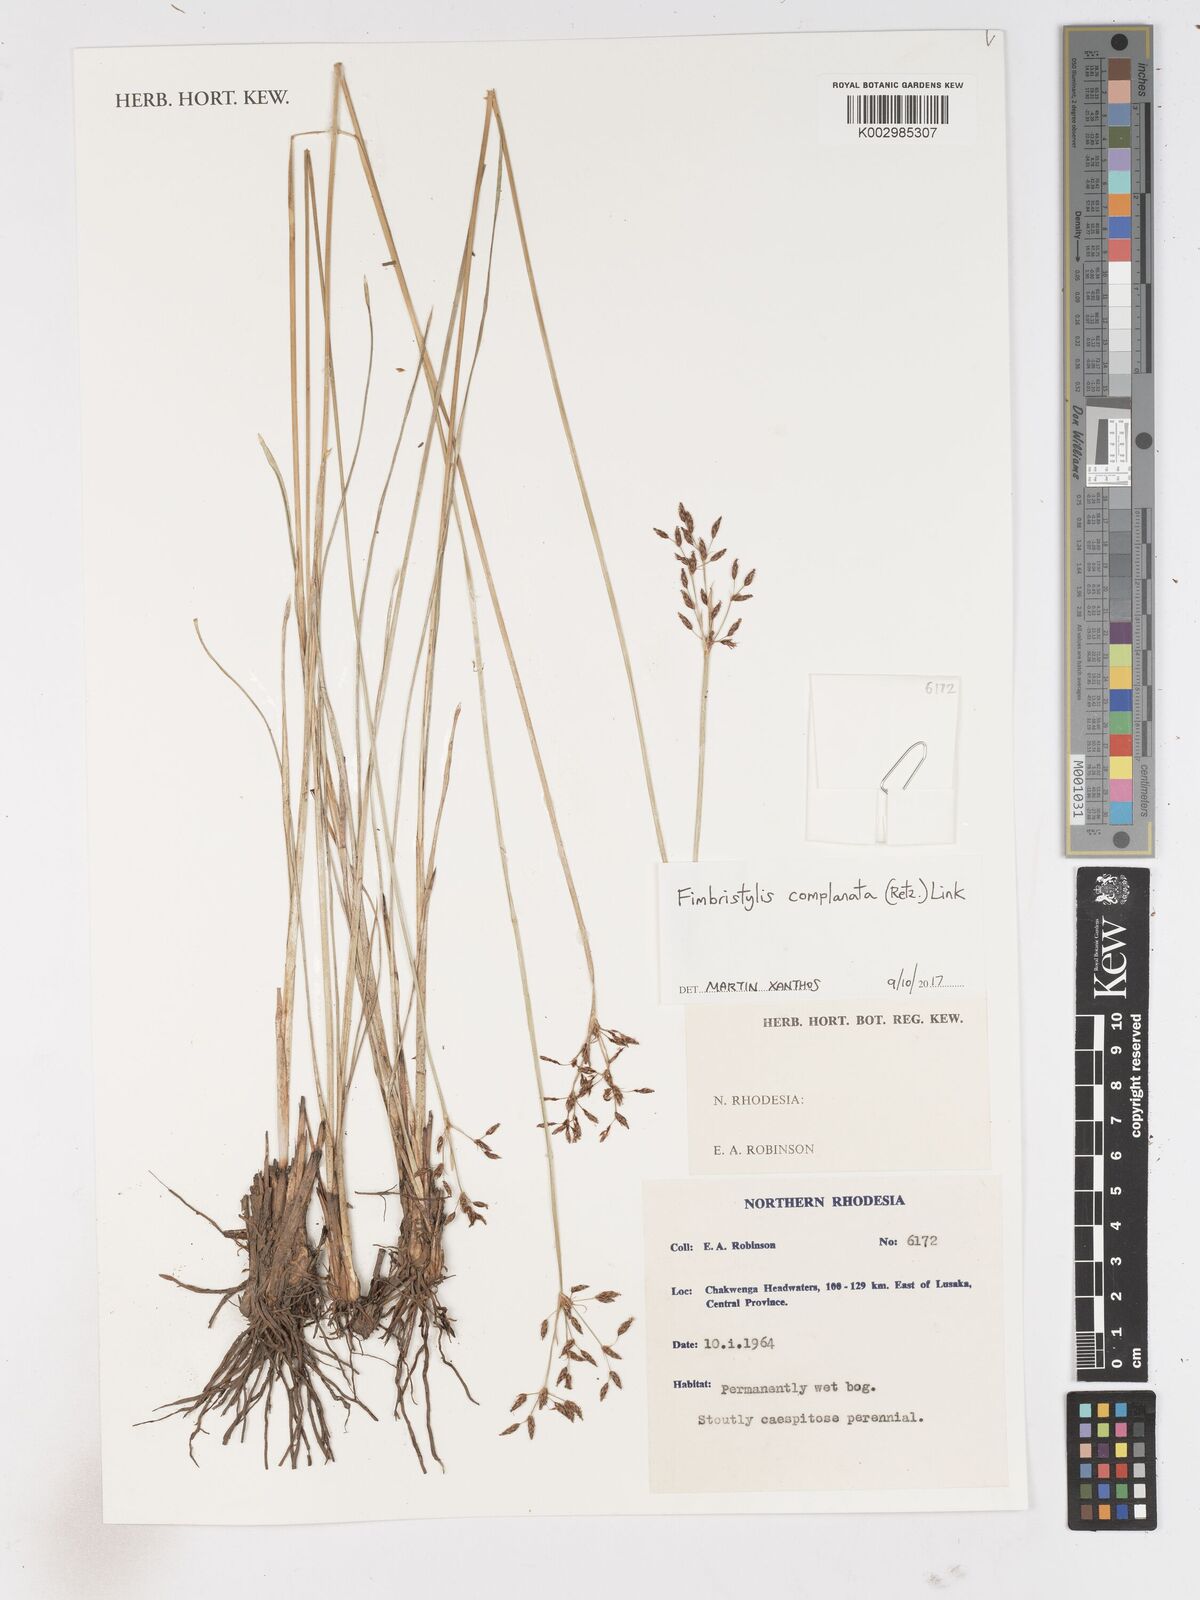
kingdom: Plantae
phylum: Tracheophyta
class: Liliopsida
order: Poales
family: Cyperaceae
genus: Fimbristylis
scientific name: Fimbristylis complanata
